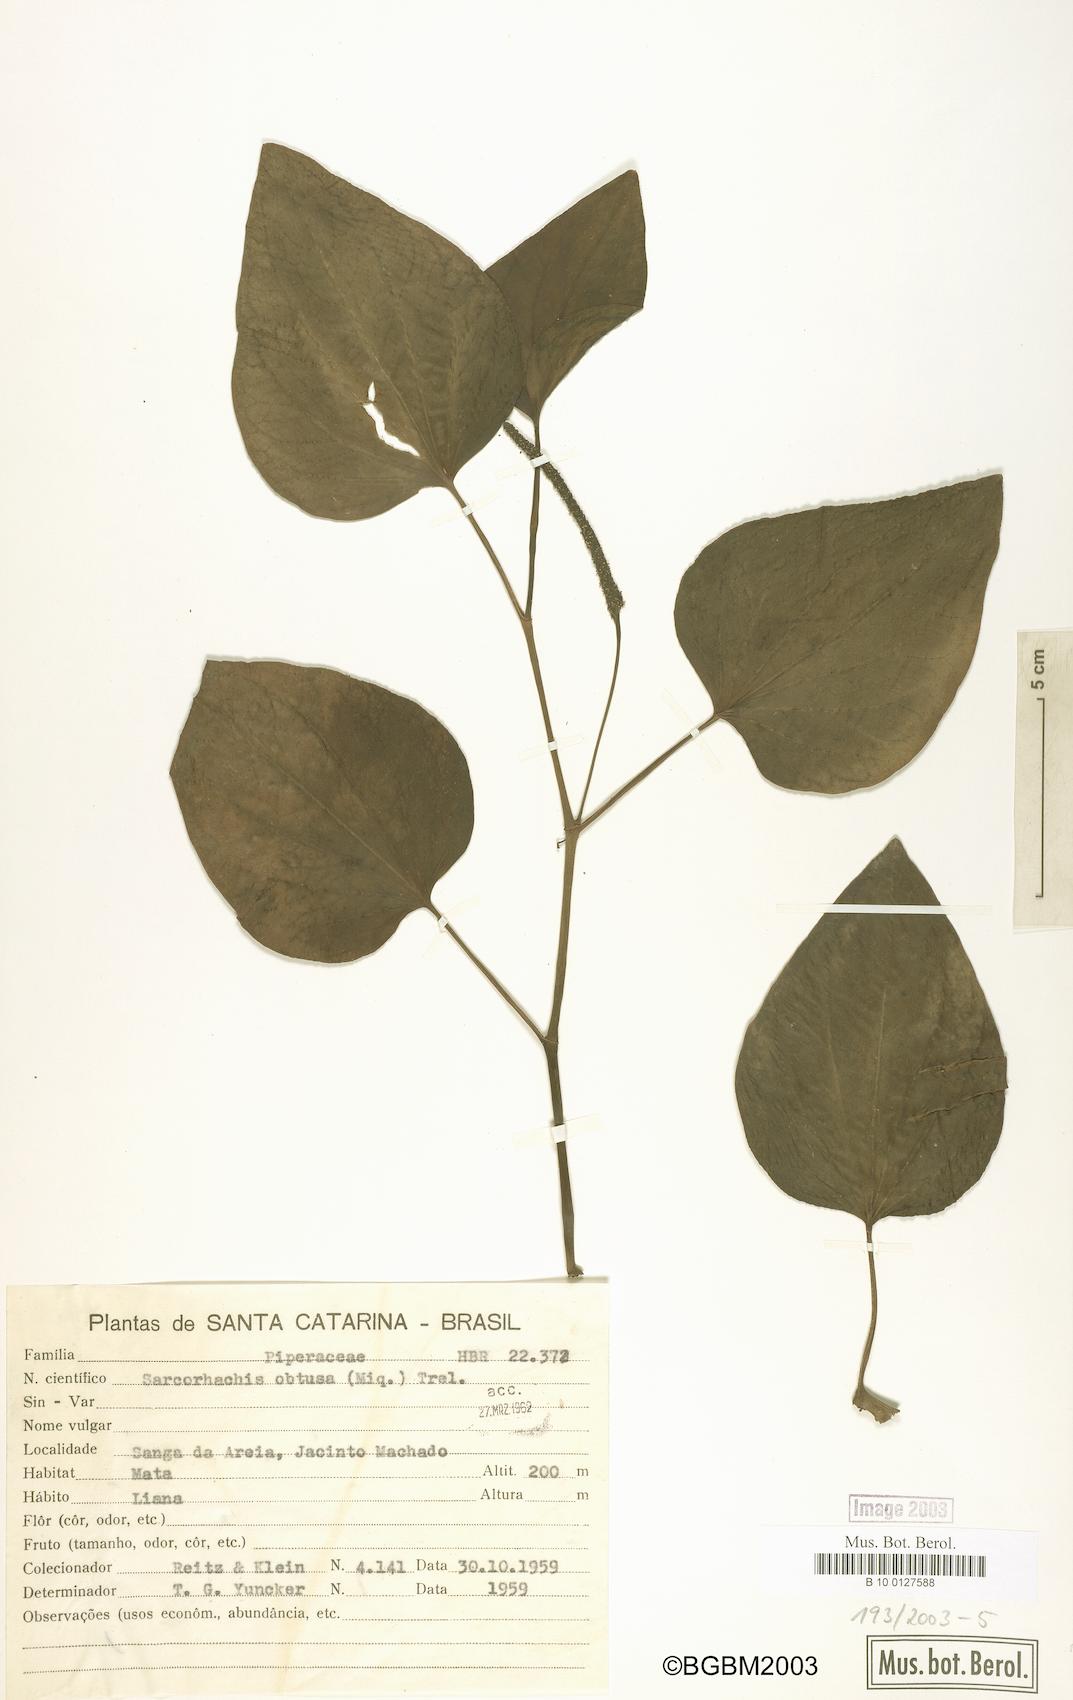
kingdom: Plantae
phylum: Tracheophyta
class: Magnoliopsida
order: Piperales
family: Piperaceae
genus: Manekia
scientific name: Manekia obtusa
